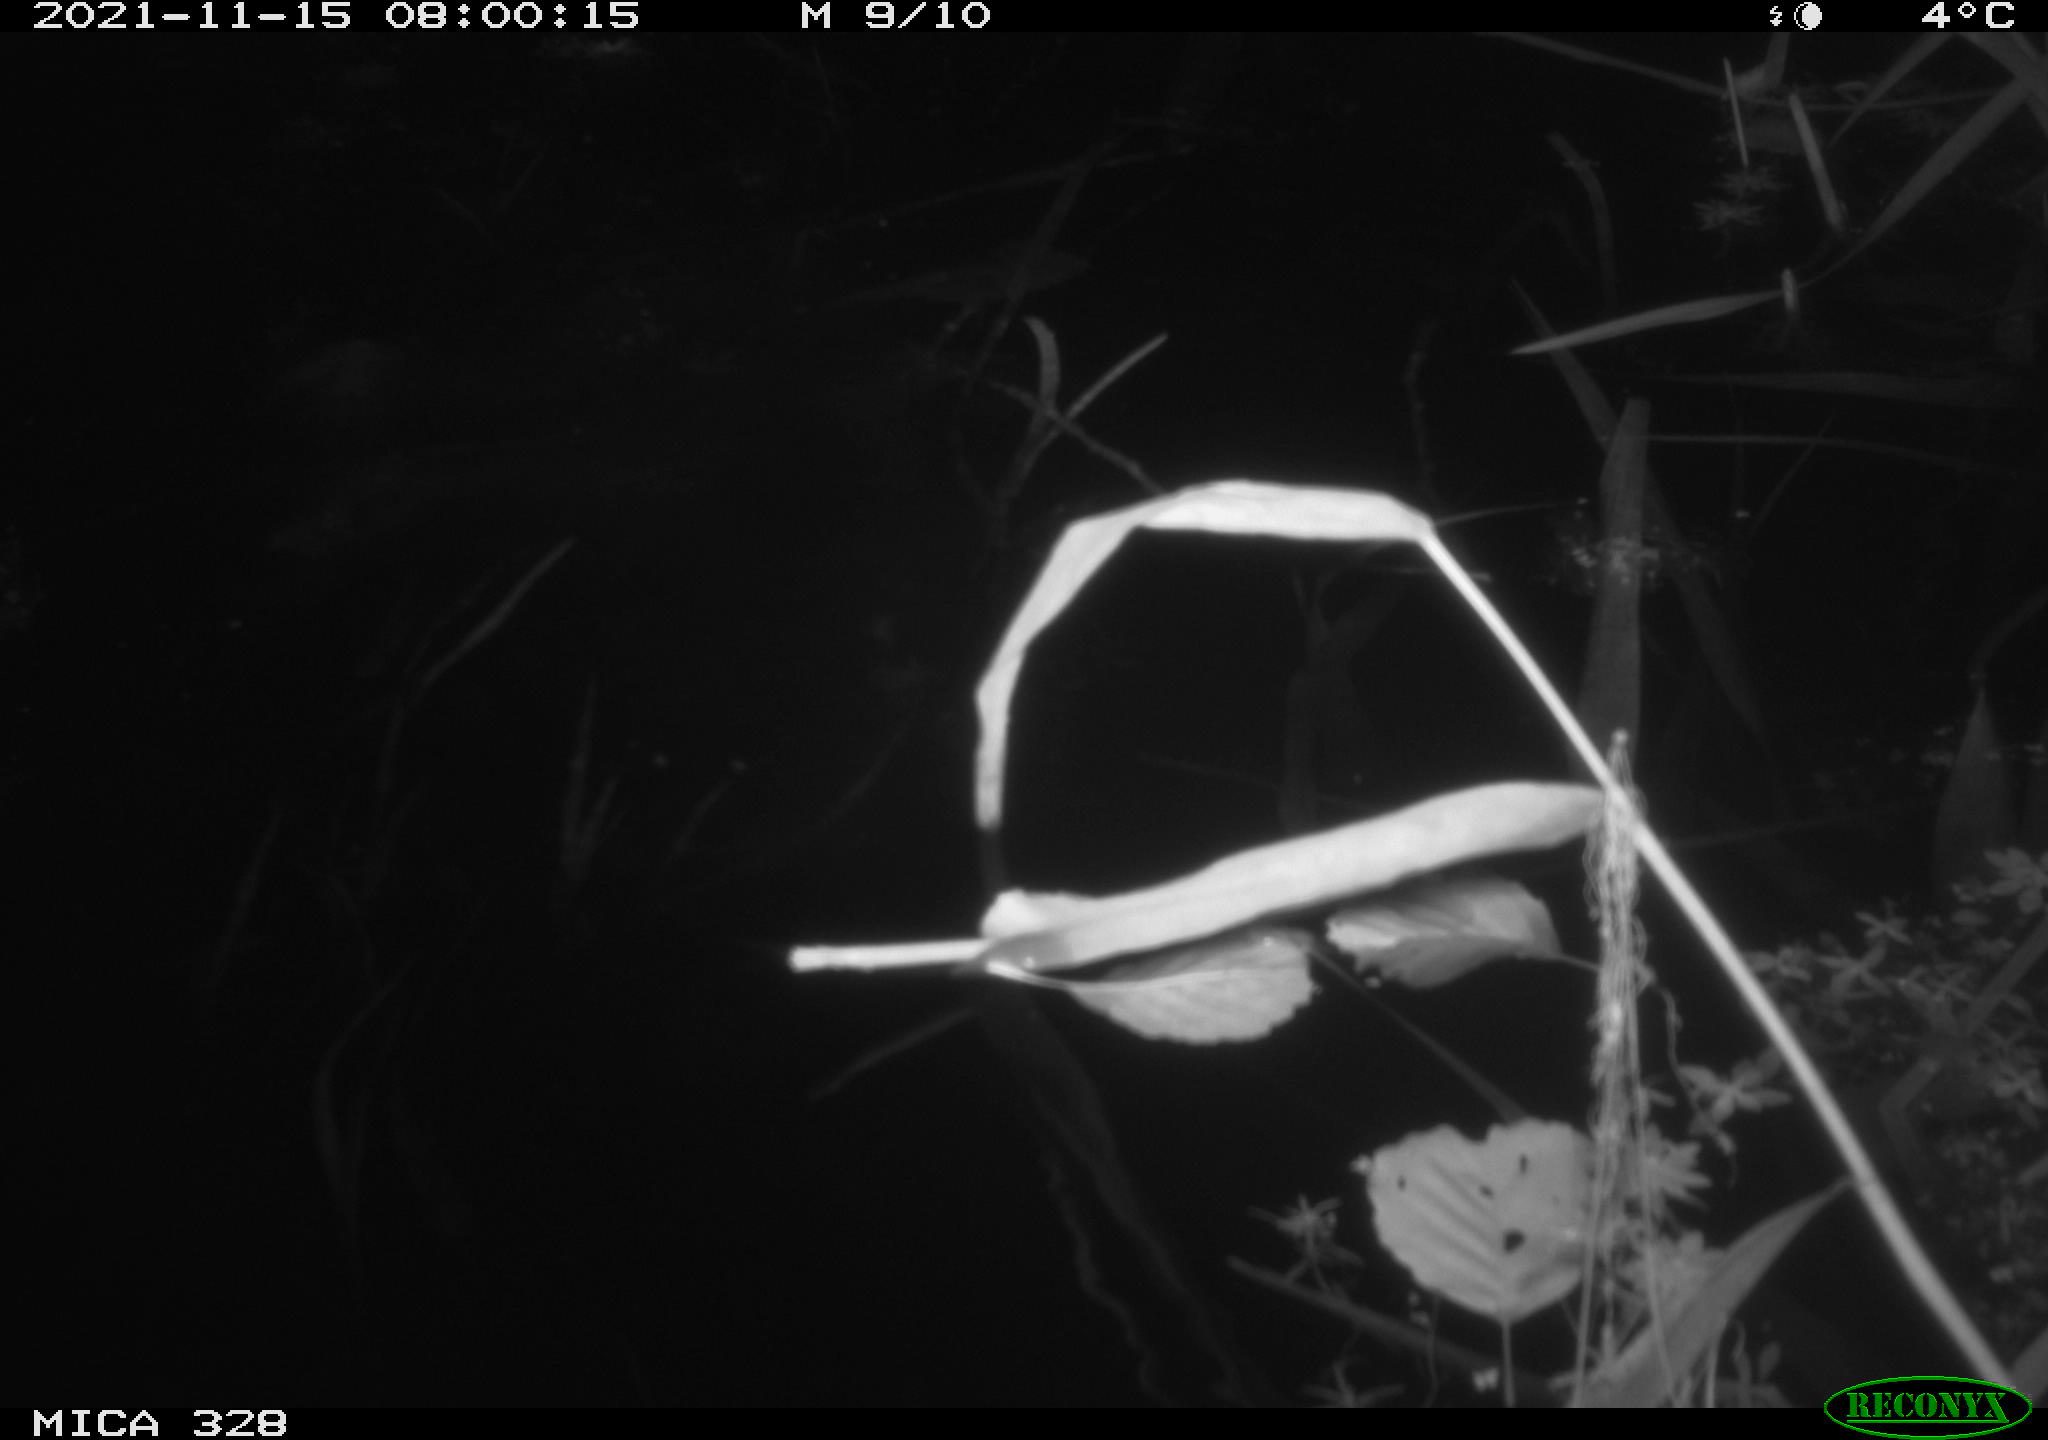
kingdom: Animalia
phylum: Chordata
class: Aves
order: Anseriformes
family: Anatidae
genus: Anas
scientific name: Anas platyrhynchos
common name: Mallard
